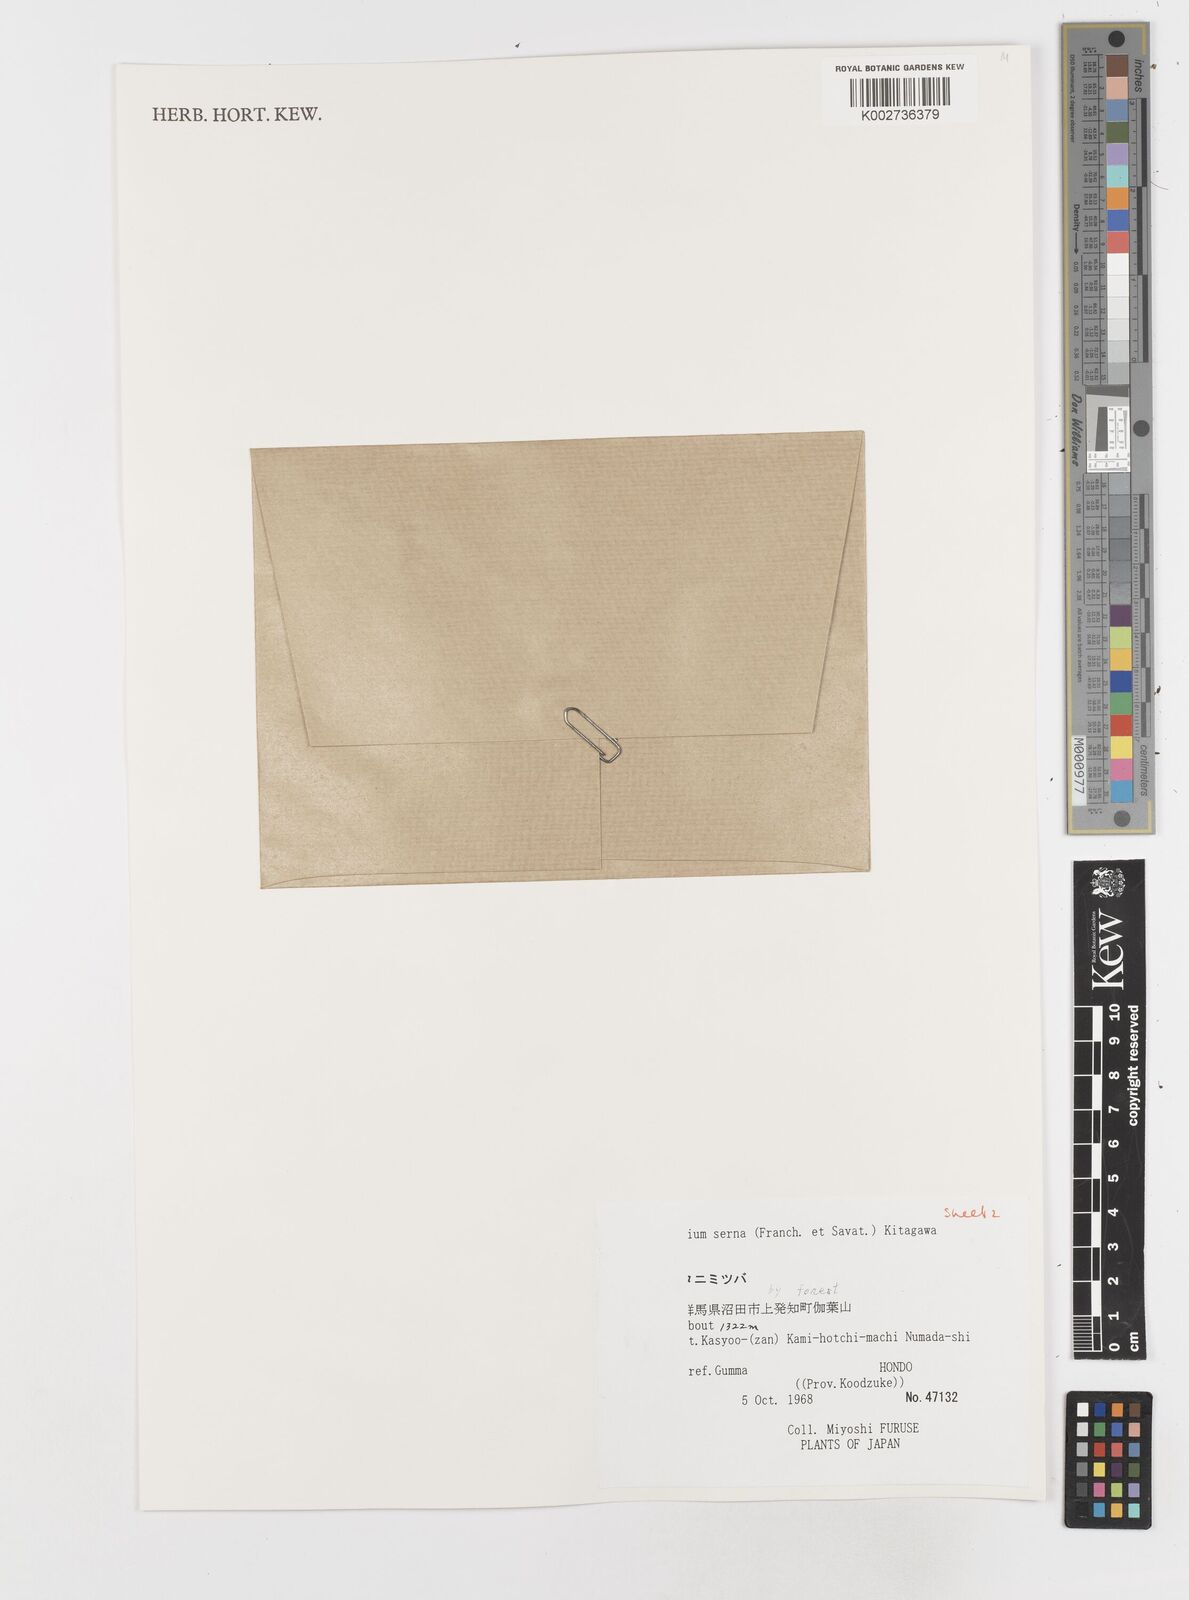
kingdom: Plantae
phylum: Tracheophyta
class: Magnoliopsida
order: Apiales
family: Apiaceae
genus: Sium
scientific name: Sium serra
